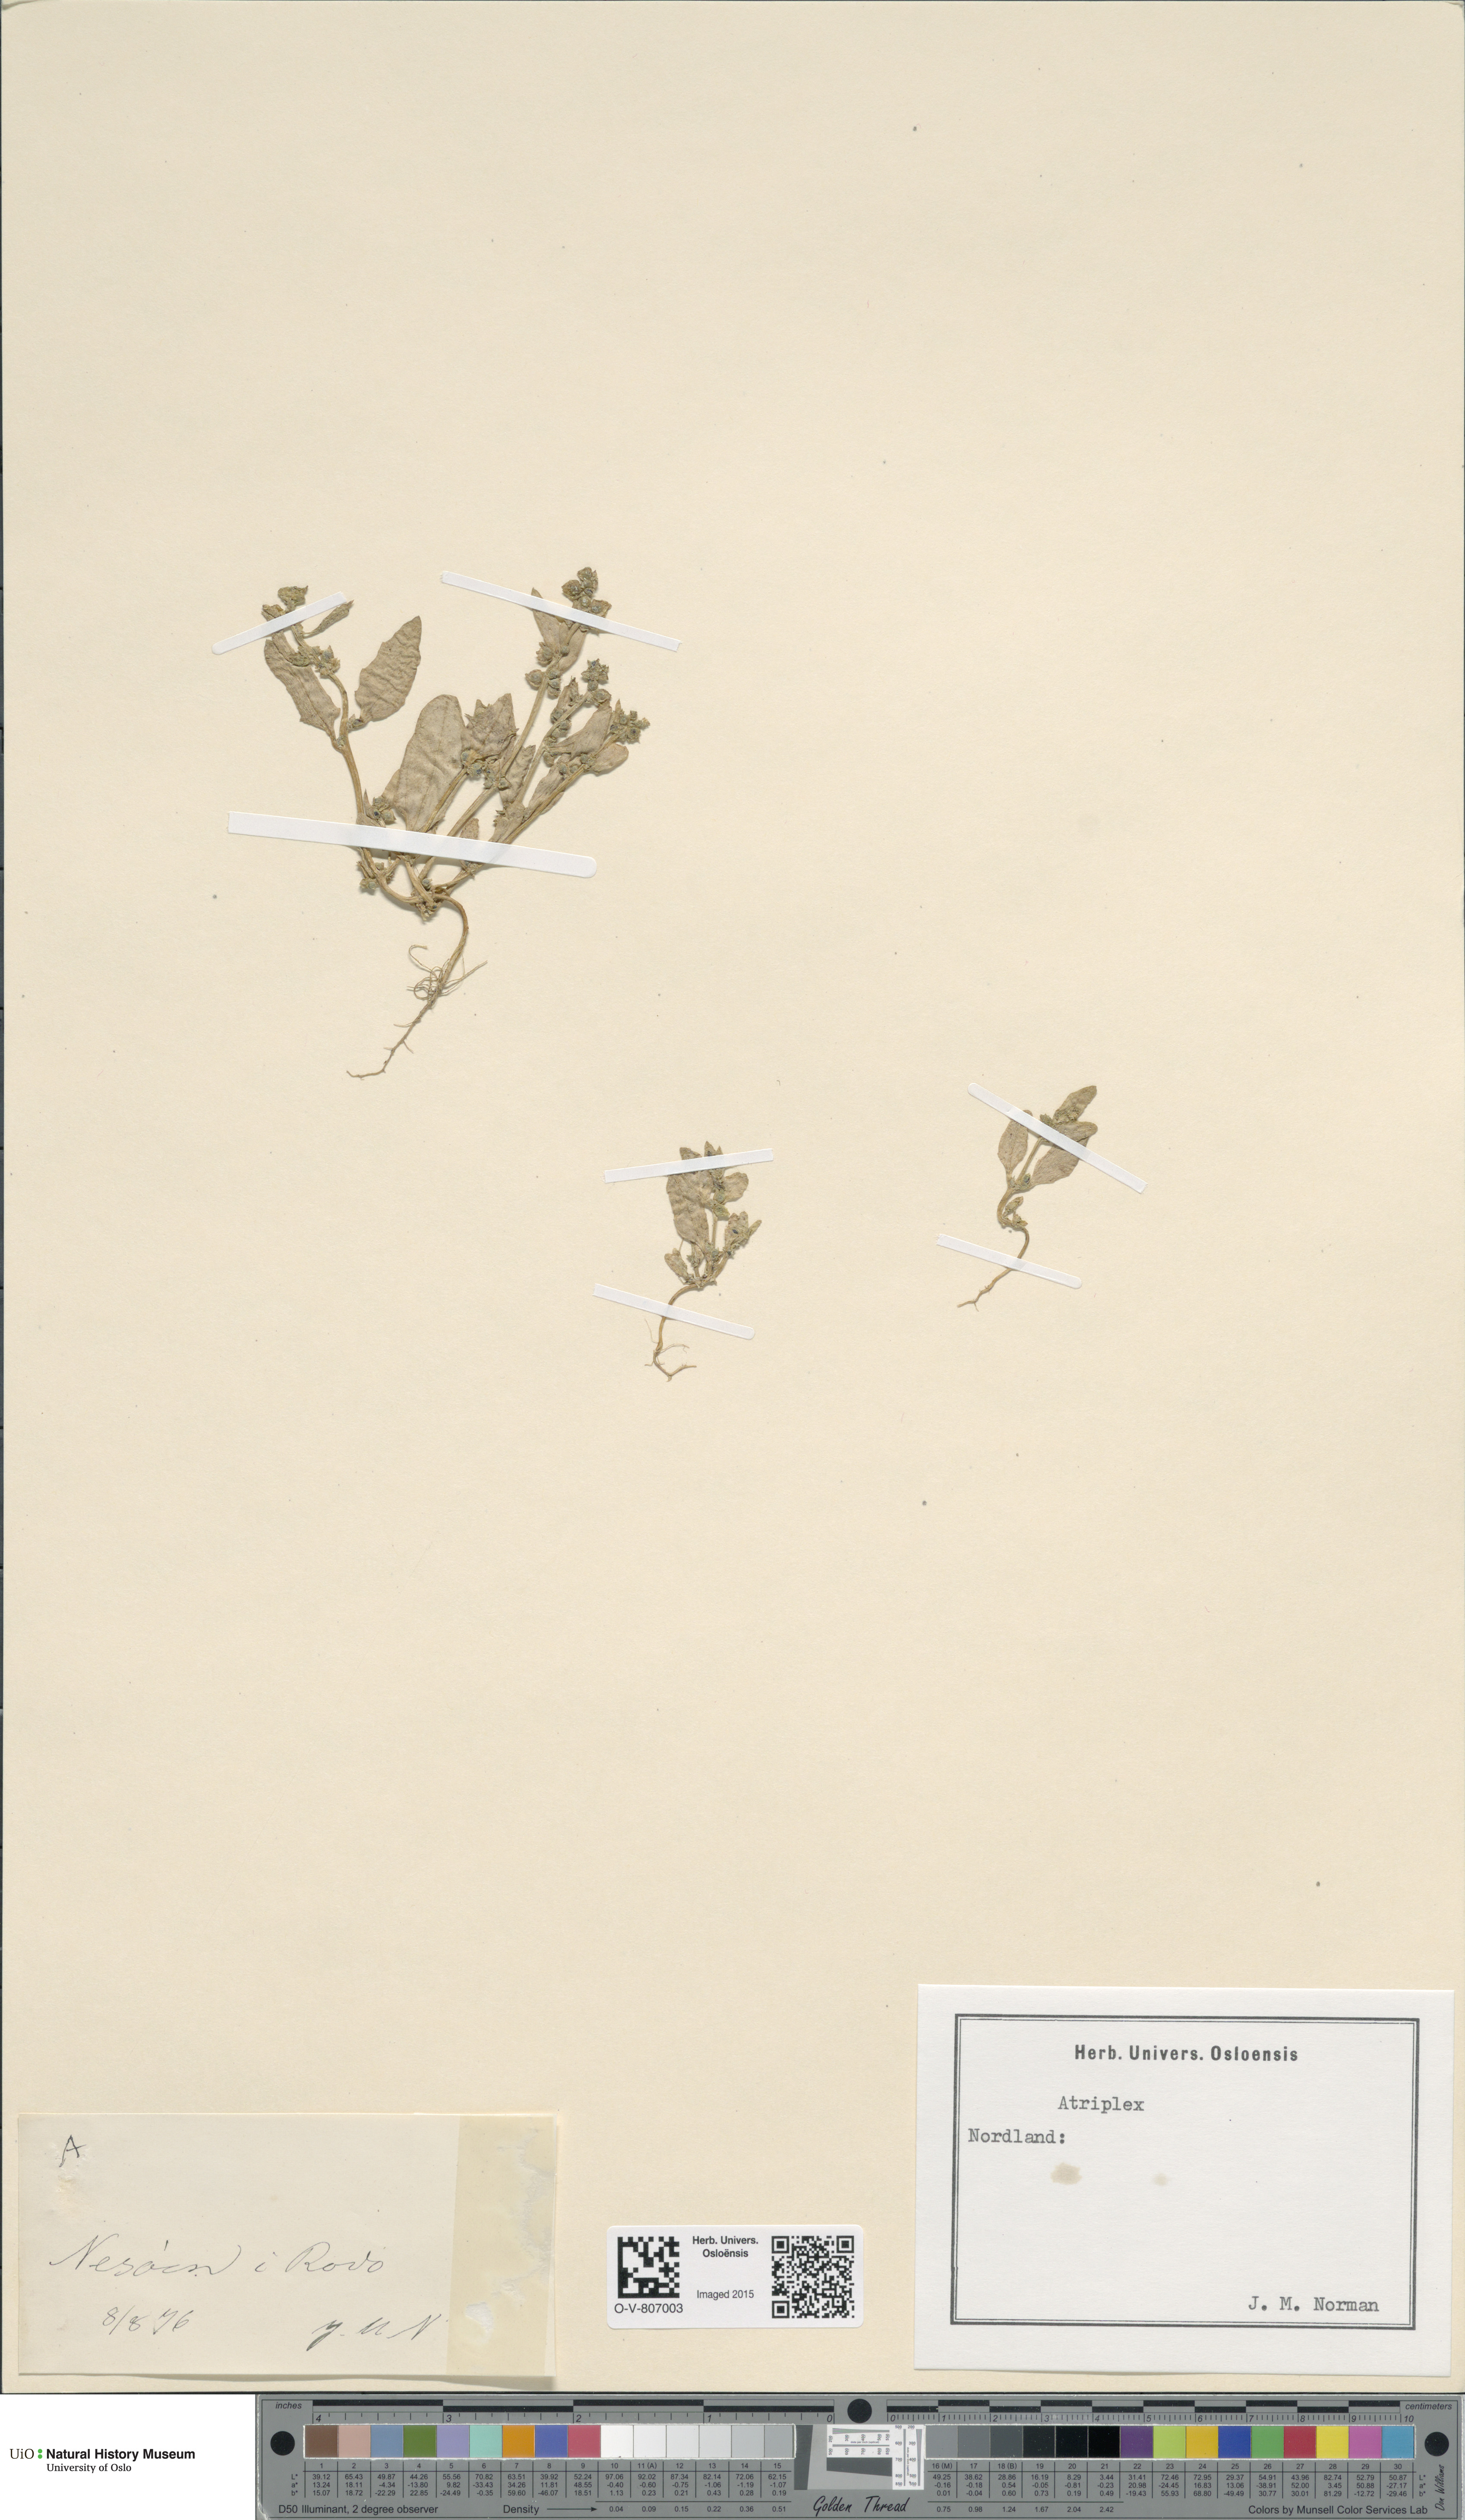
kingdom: Plantae
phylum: Tracheophyta
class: Magnoliopsida
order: Caryophyllales
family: Amaranthaceae
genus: Atriplex
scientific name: Atriplex
